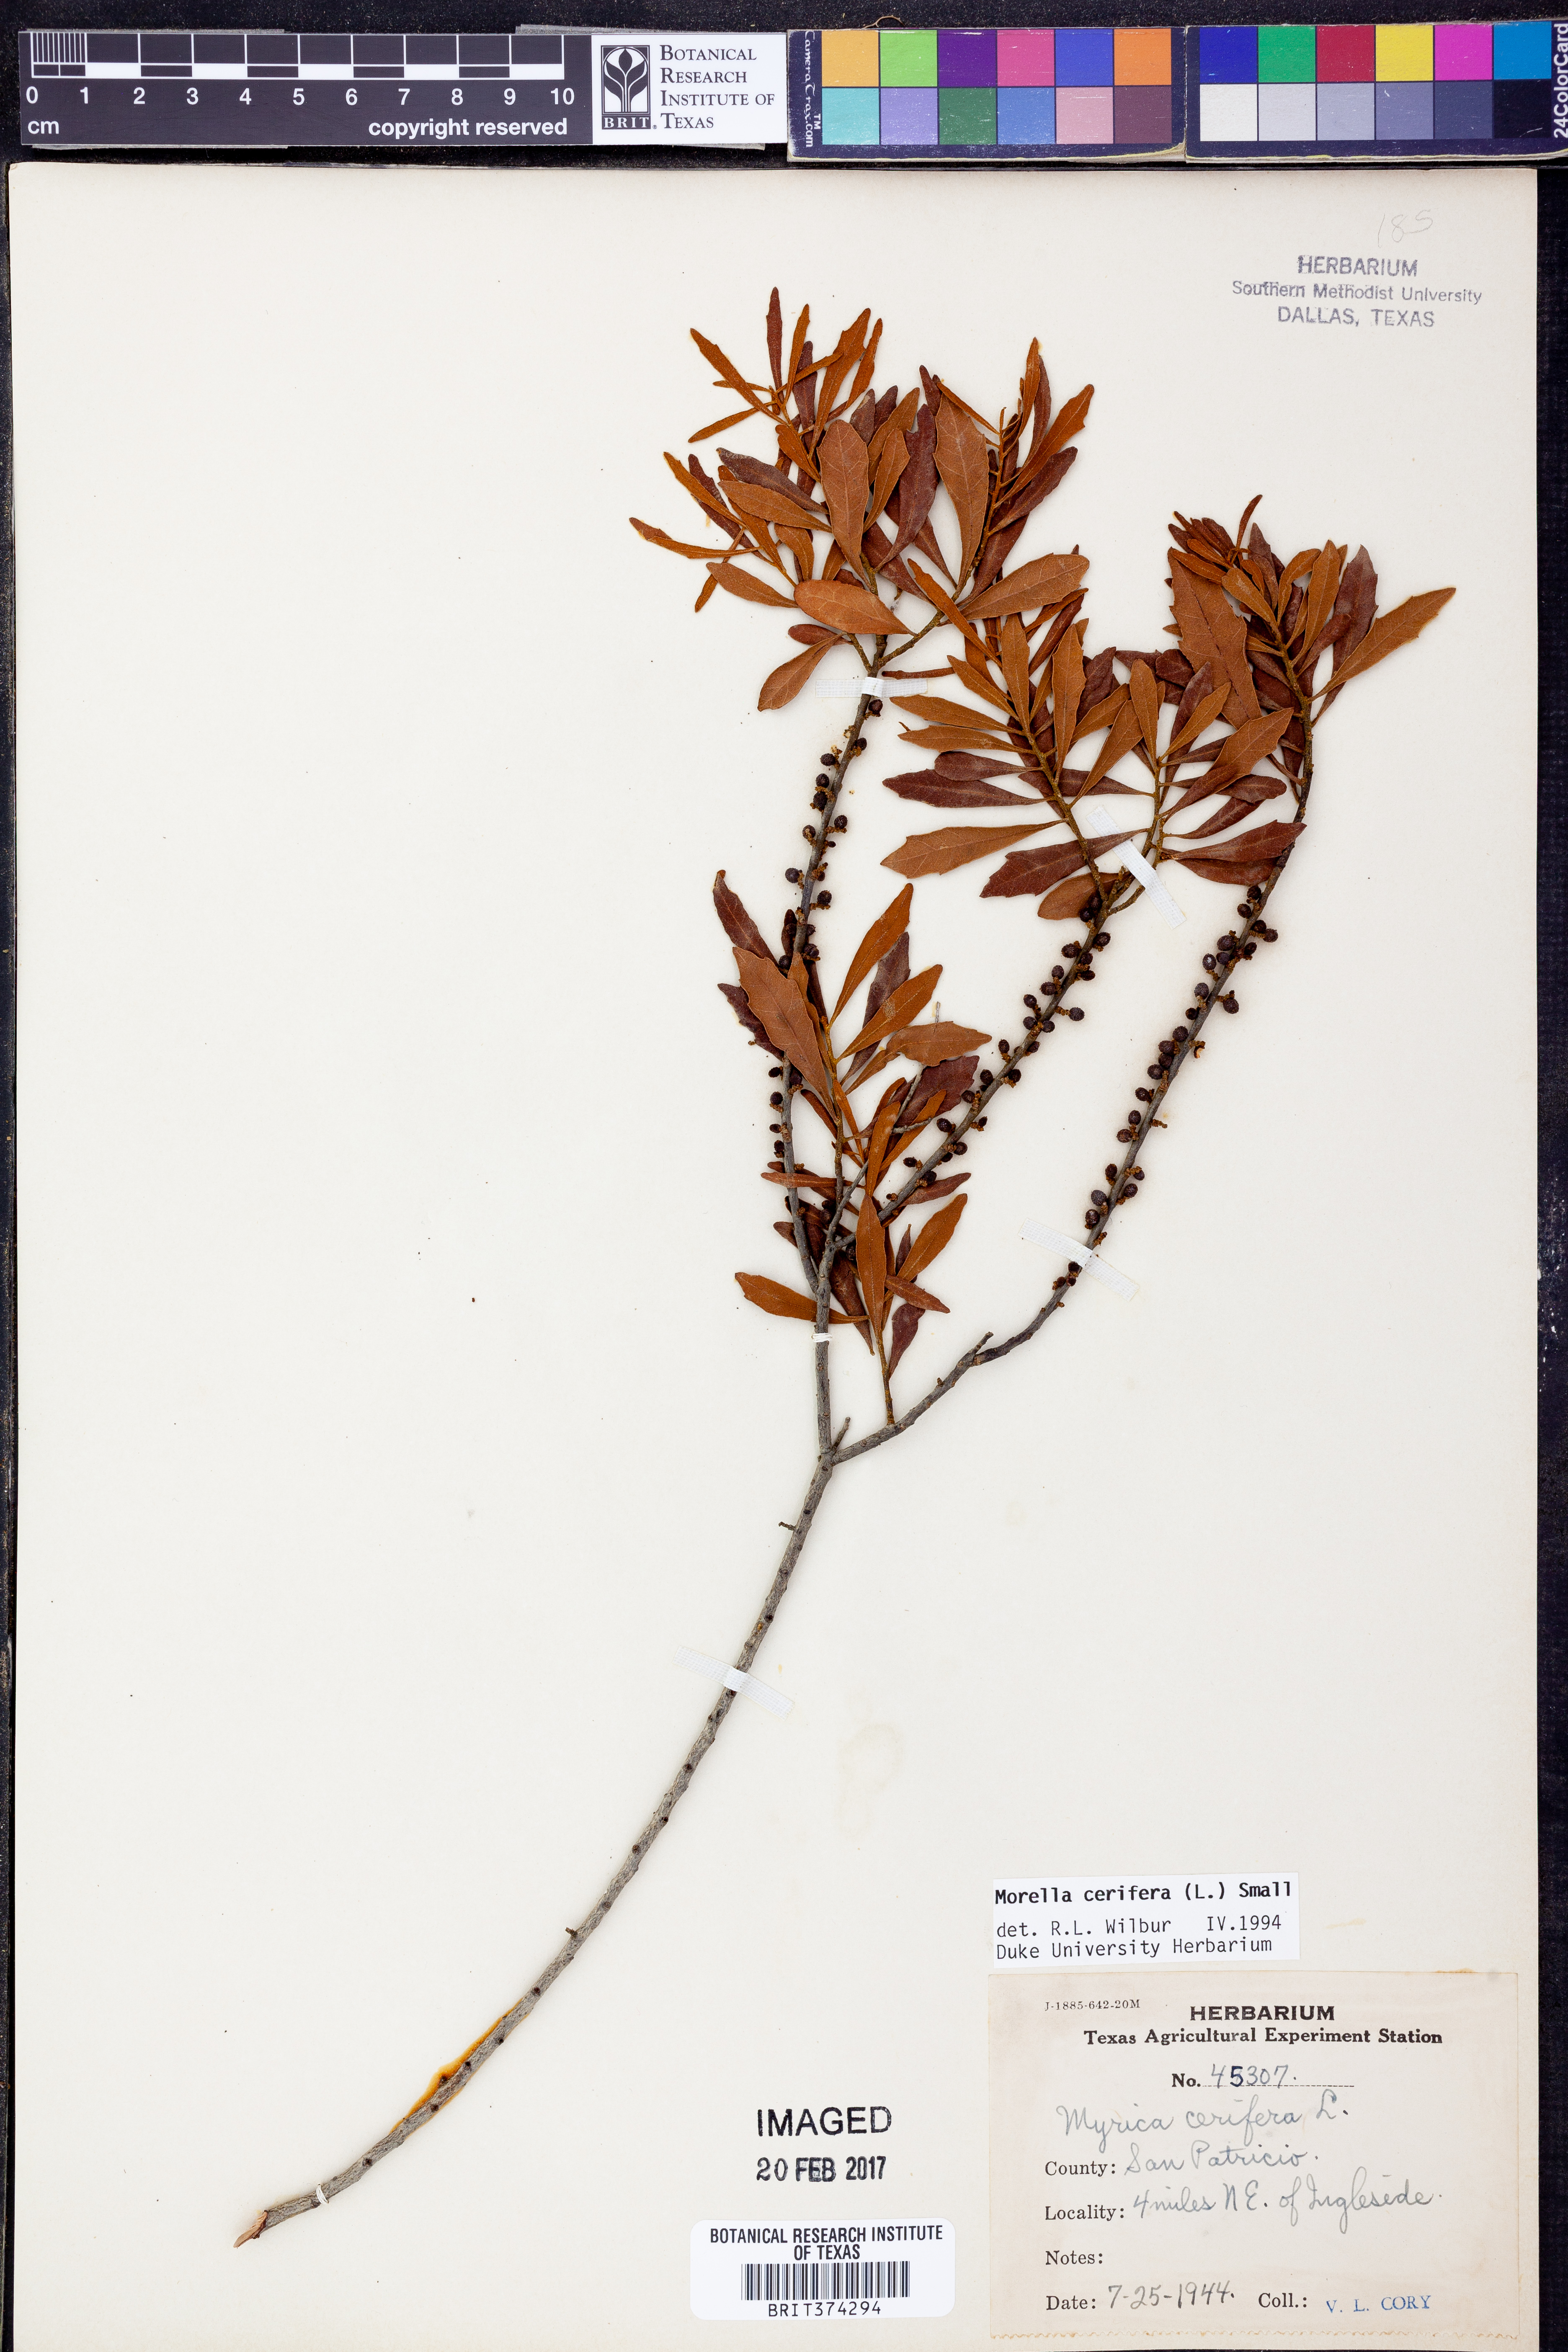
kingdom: Plantae
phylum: Tracheophyta
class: Magnoliopsida
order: Fagales
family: Myricaceae
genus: Morella
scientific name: Morella cerifera
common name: Wax myrtle
